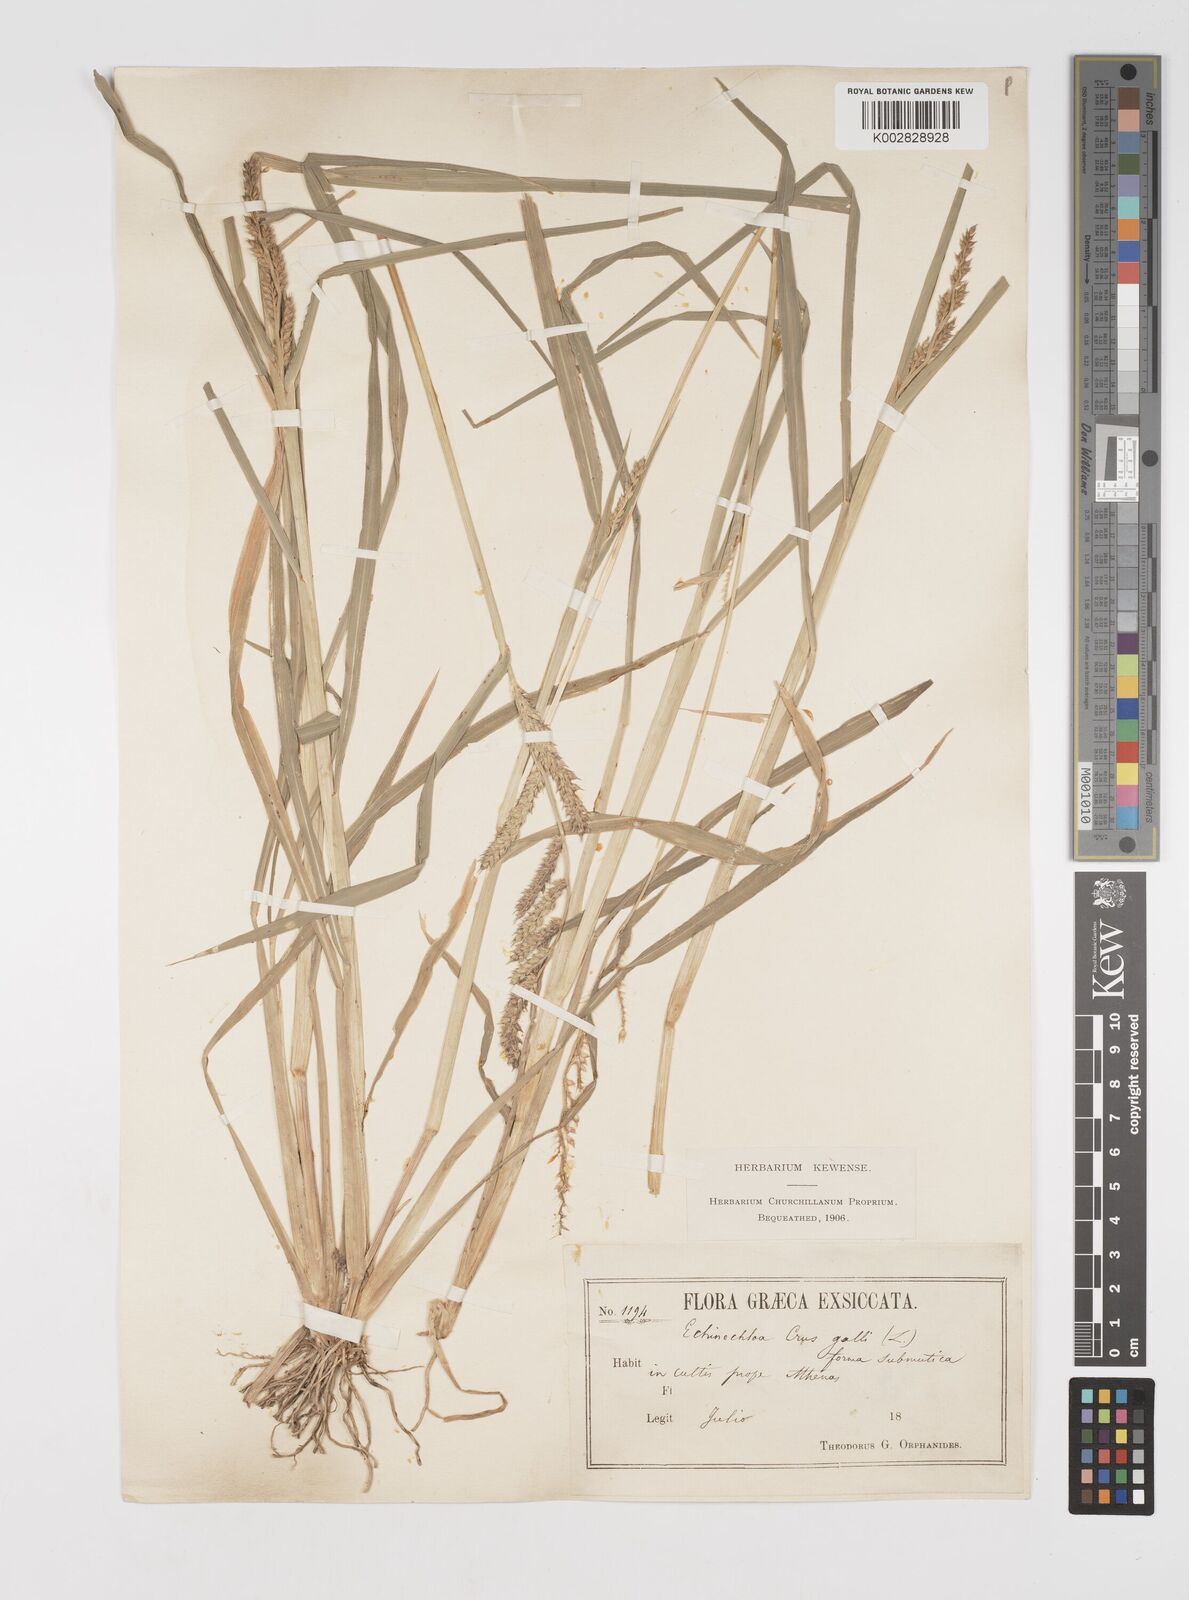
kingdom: Plantae
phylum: Tracheophyta
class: Liliopsida
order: Poales
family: Poaceae
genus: Echinochloa
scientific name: Echinochloa crus-galli
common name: Cockspur
